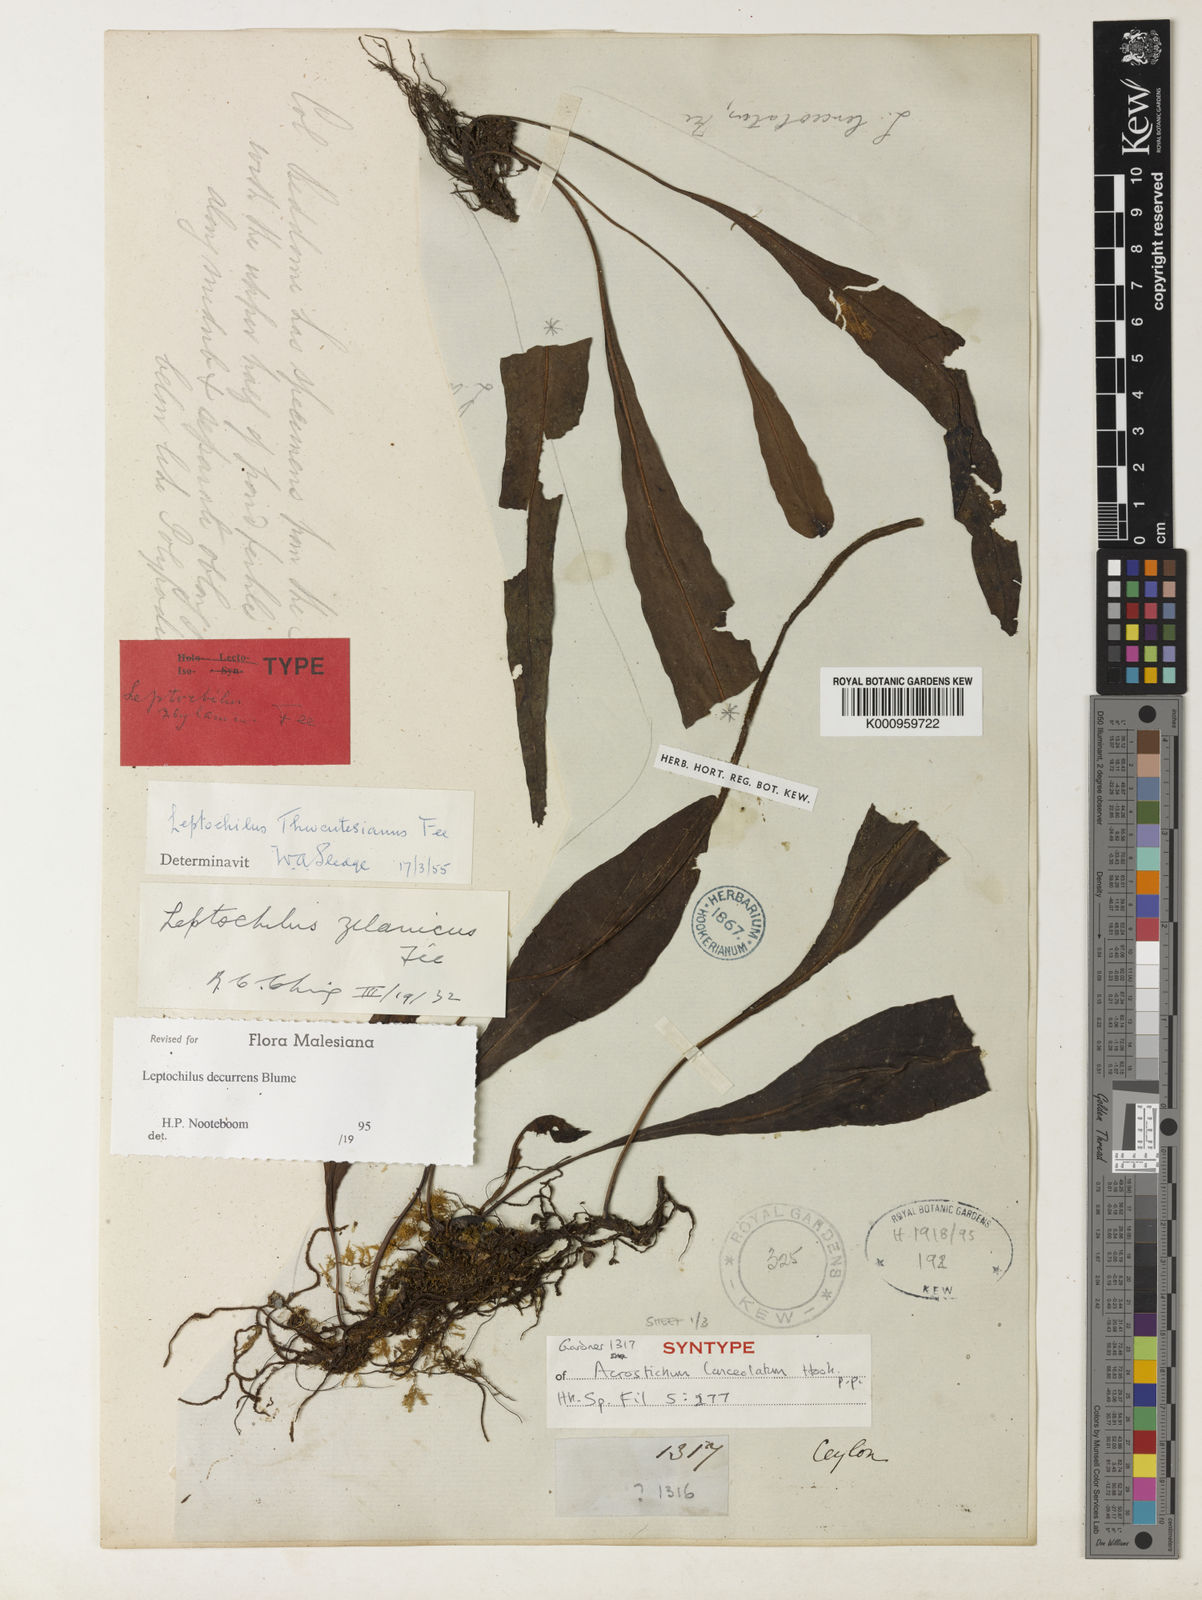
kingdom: Plantae
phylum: Tracheophyta
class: Polypodiopsida
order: Polypodiales
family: Polypodiaceae
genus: Leptochilus
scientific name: Leptochilus decurrens
